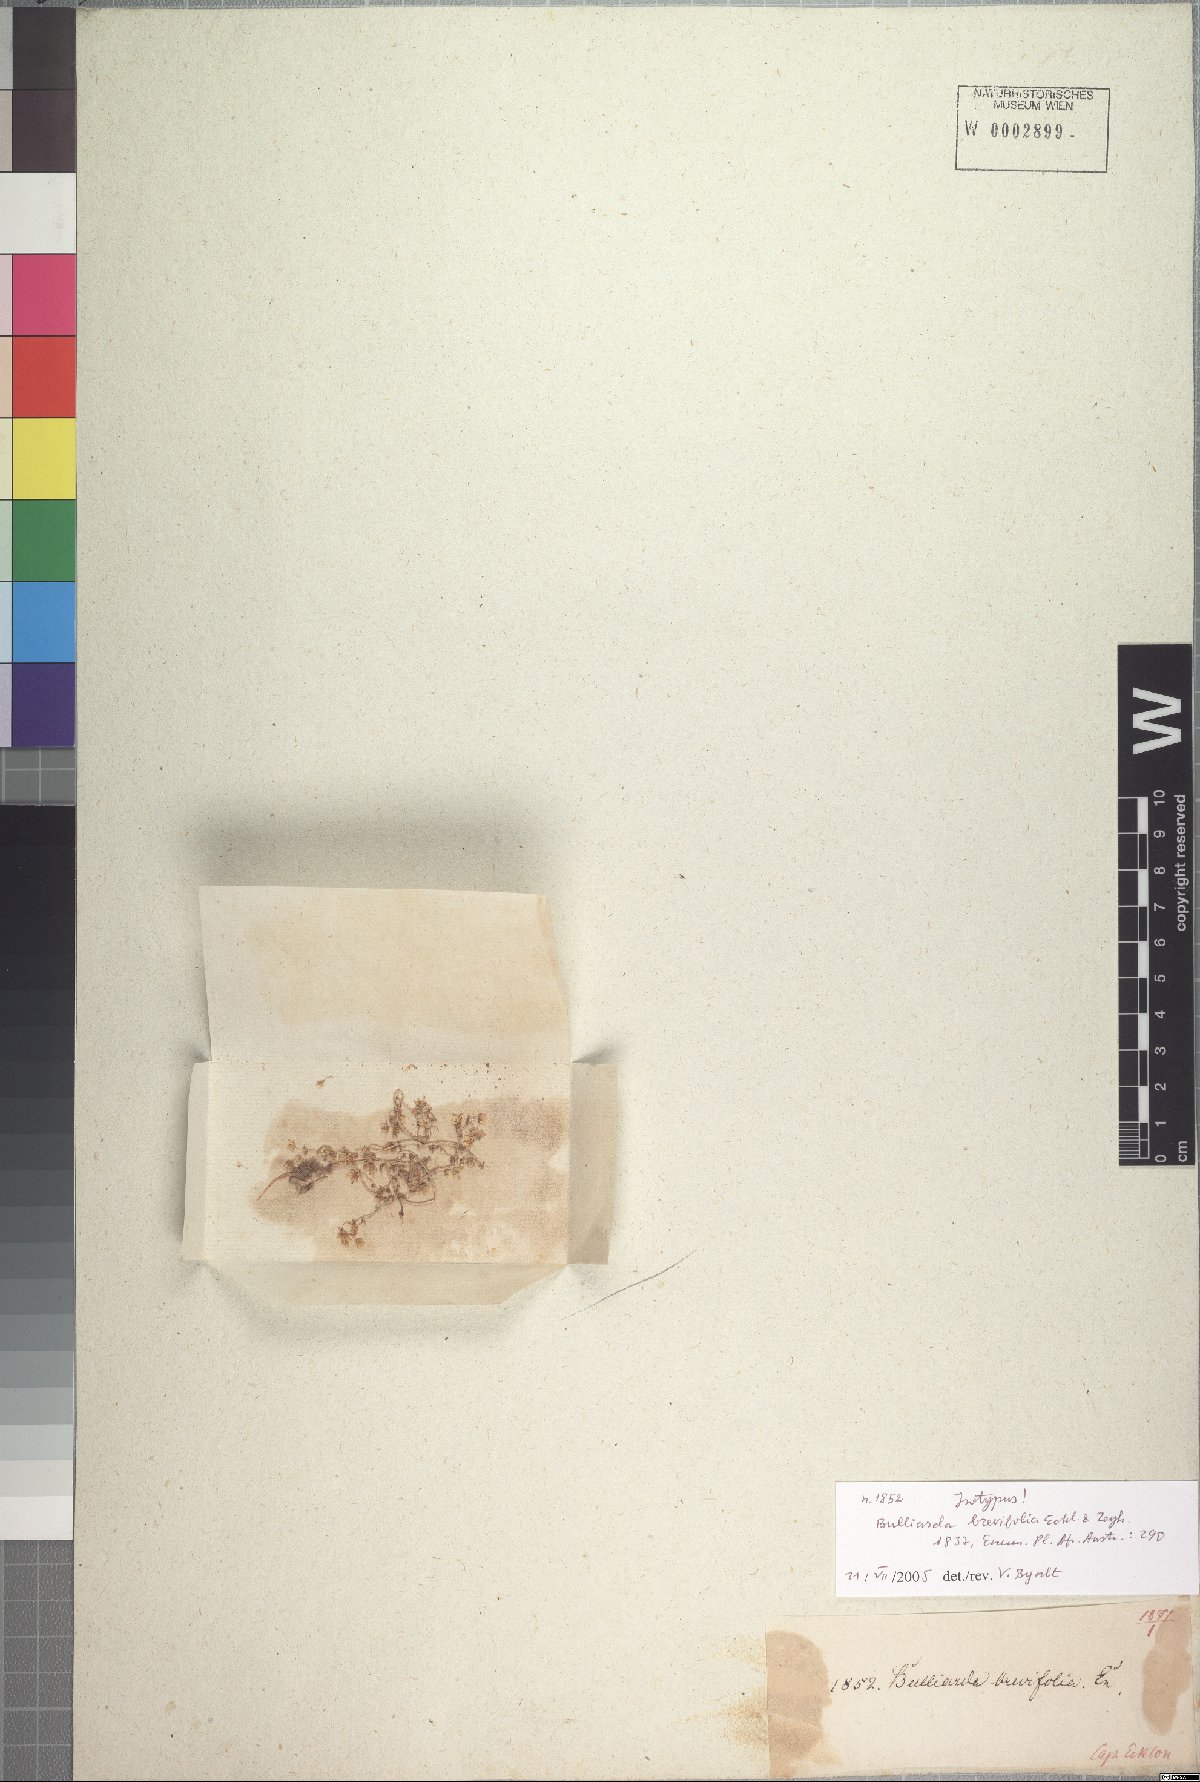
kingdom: Plantae
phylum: Tracheophyta
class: Magnoliopsida
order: Saxifragales
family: Crassulaceae
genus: Crassula
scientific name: Crassula decumbens
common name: Scilly pigmyweed
